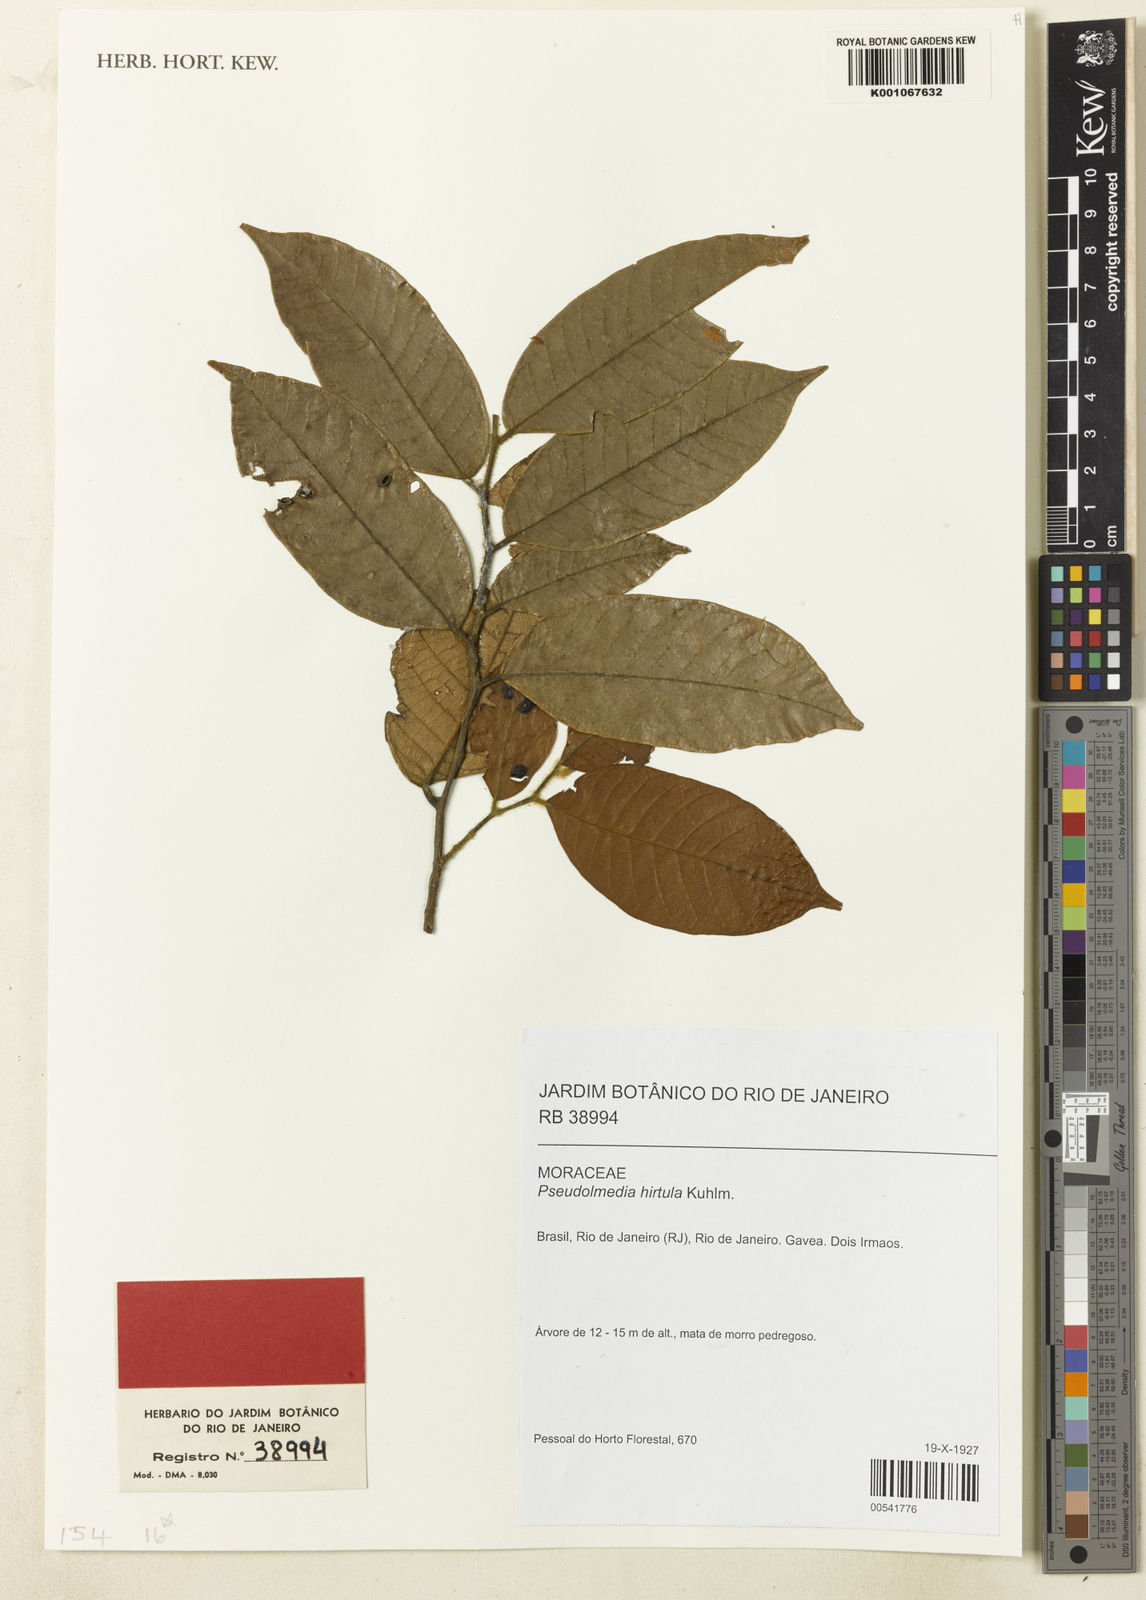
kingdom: Plantae
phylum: Tracheophyta
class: Magnoliopsida
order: Rosales
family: Moraceae
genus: Pseudolmedia
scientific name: Pseudolmedia hirtula
